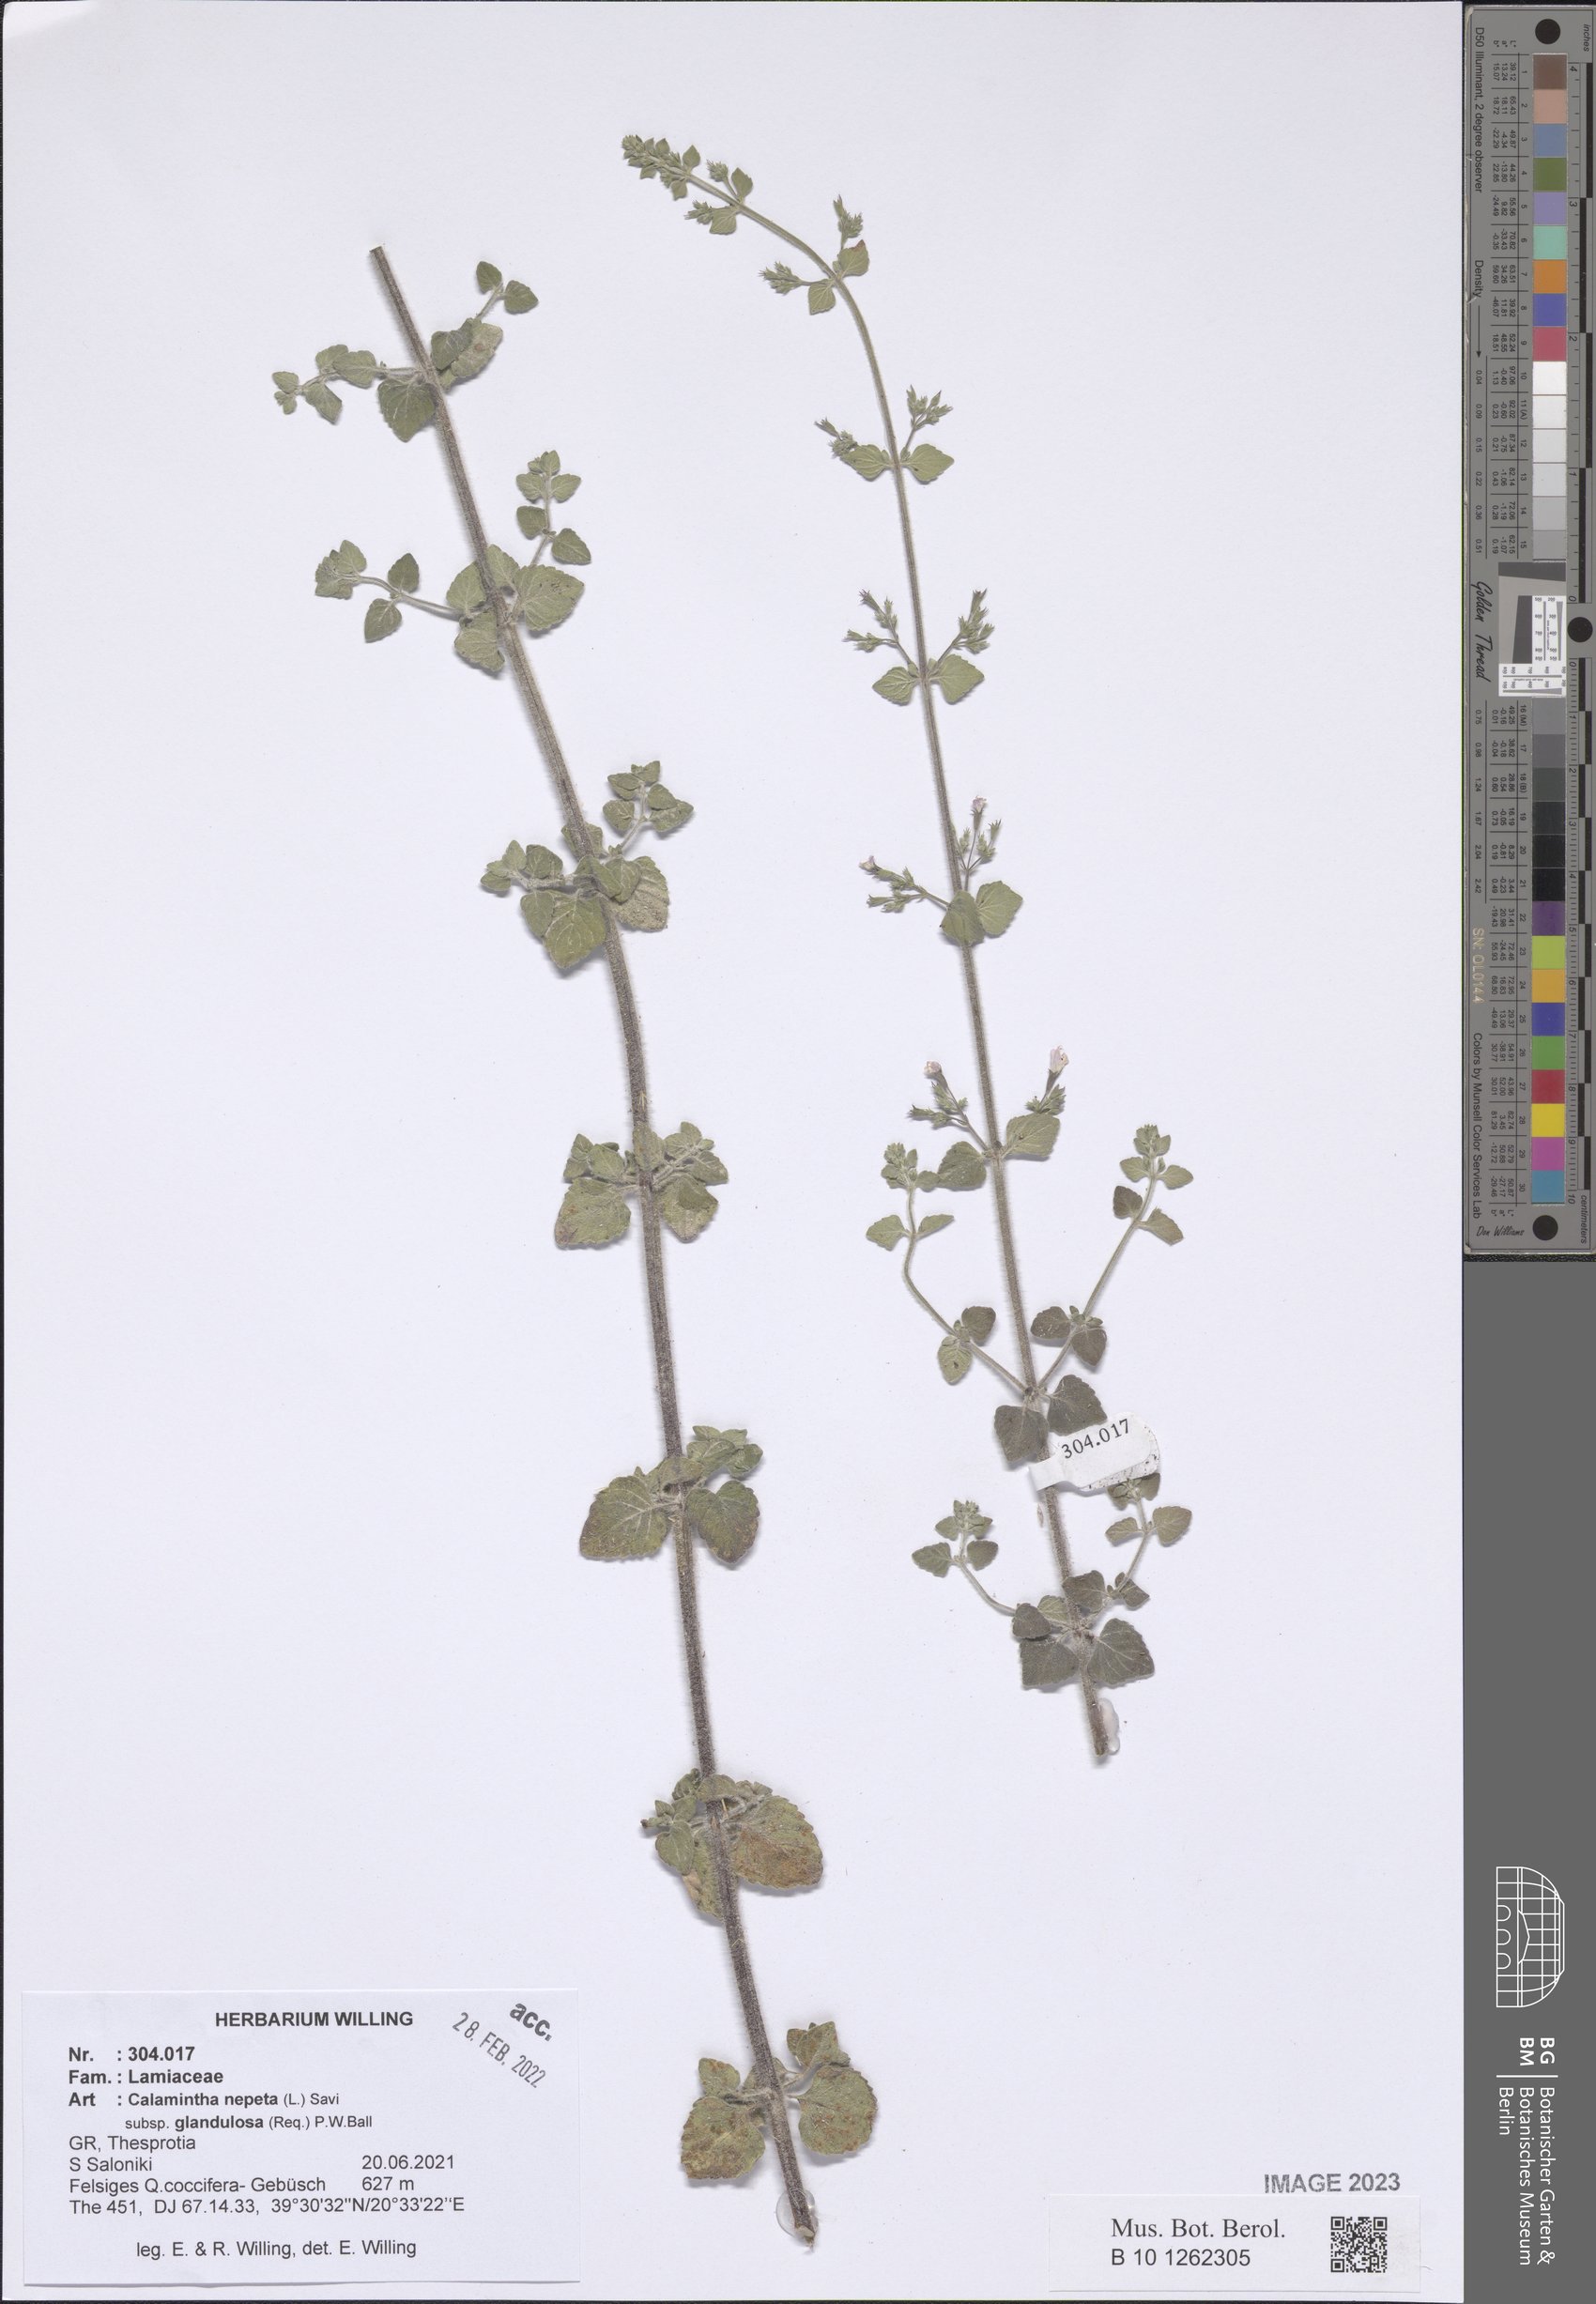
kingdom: Plantae
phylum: Tracheophyta
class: Magnoliopsida
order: Lamiales
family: Lamiaceae
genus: Clinopodium
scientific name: Clinopodium nepeta
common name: Lesser calamint
